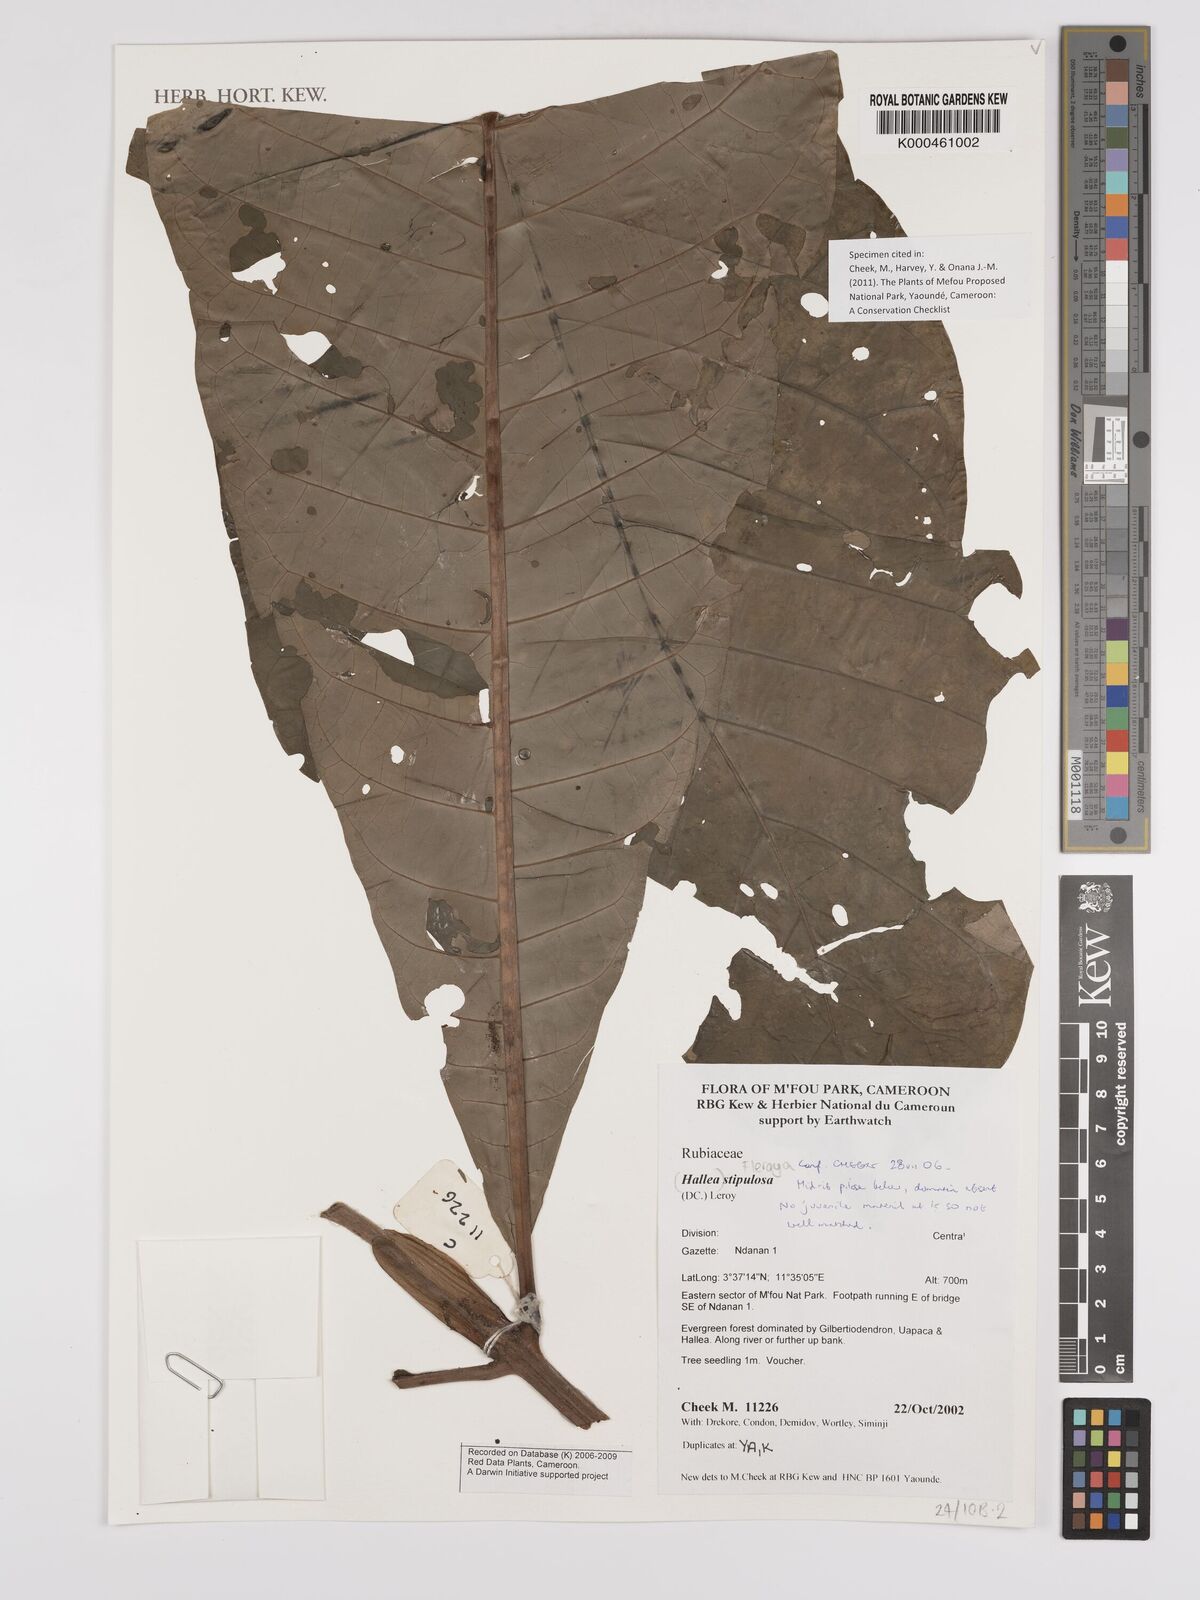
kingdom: Plantae
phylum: Tracheophyta
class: Magnoliopsida
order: Gentianales
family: Rubiaceae
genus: Mitragyna
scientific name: Mitragyna stipulosa
